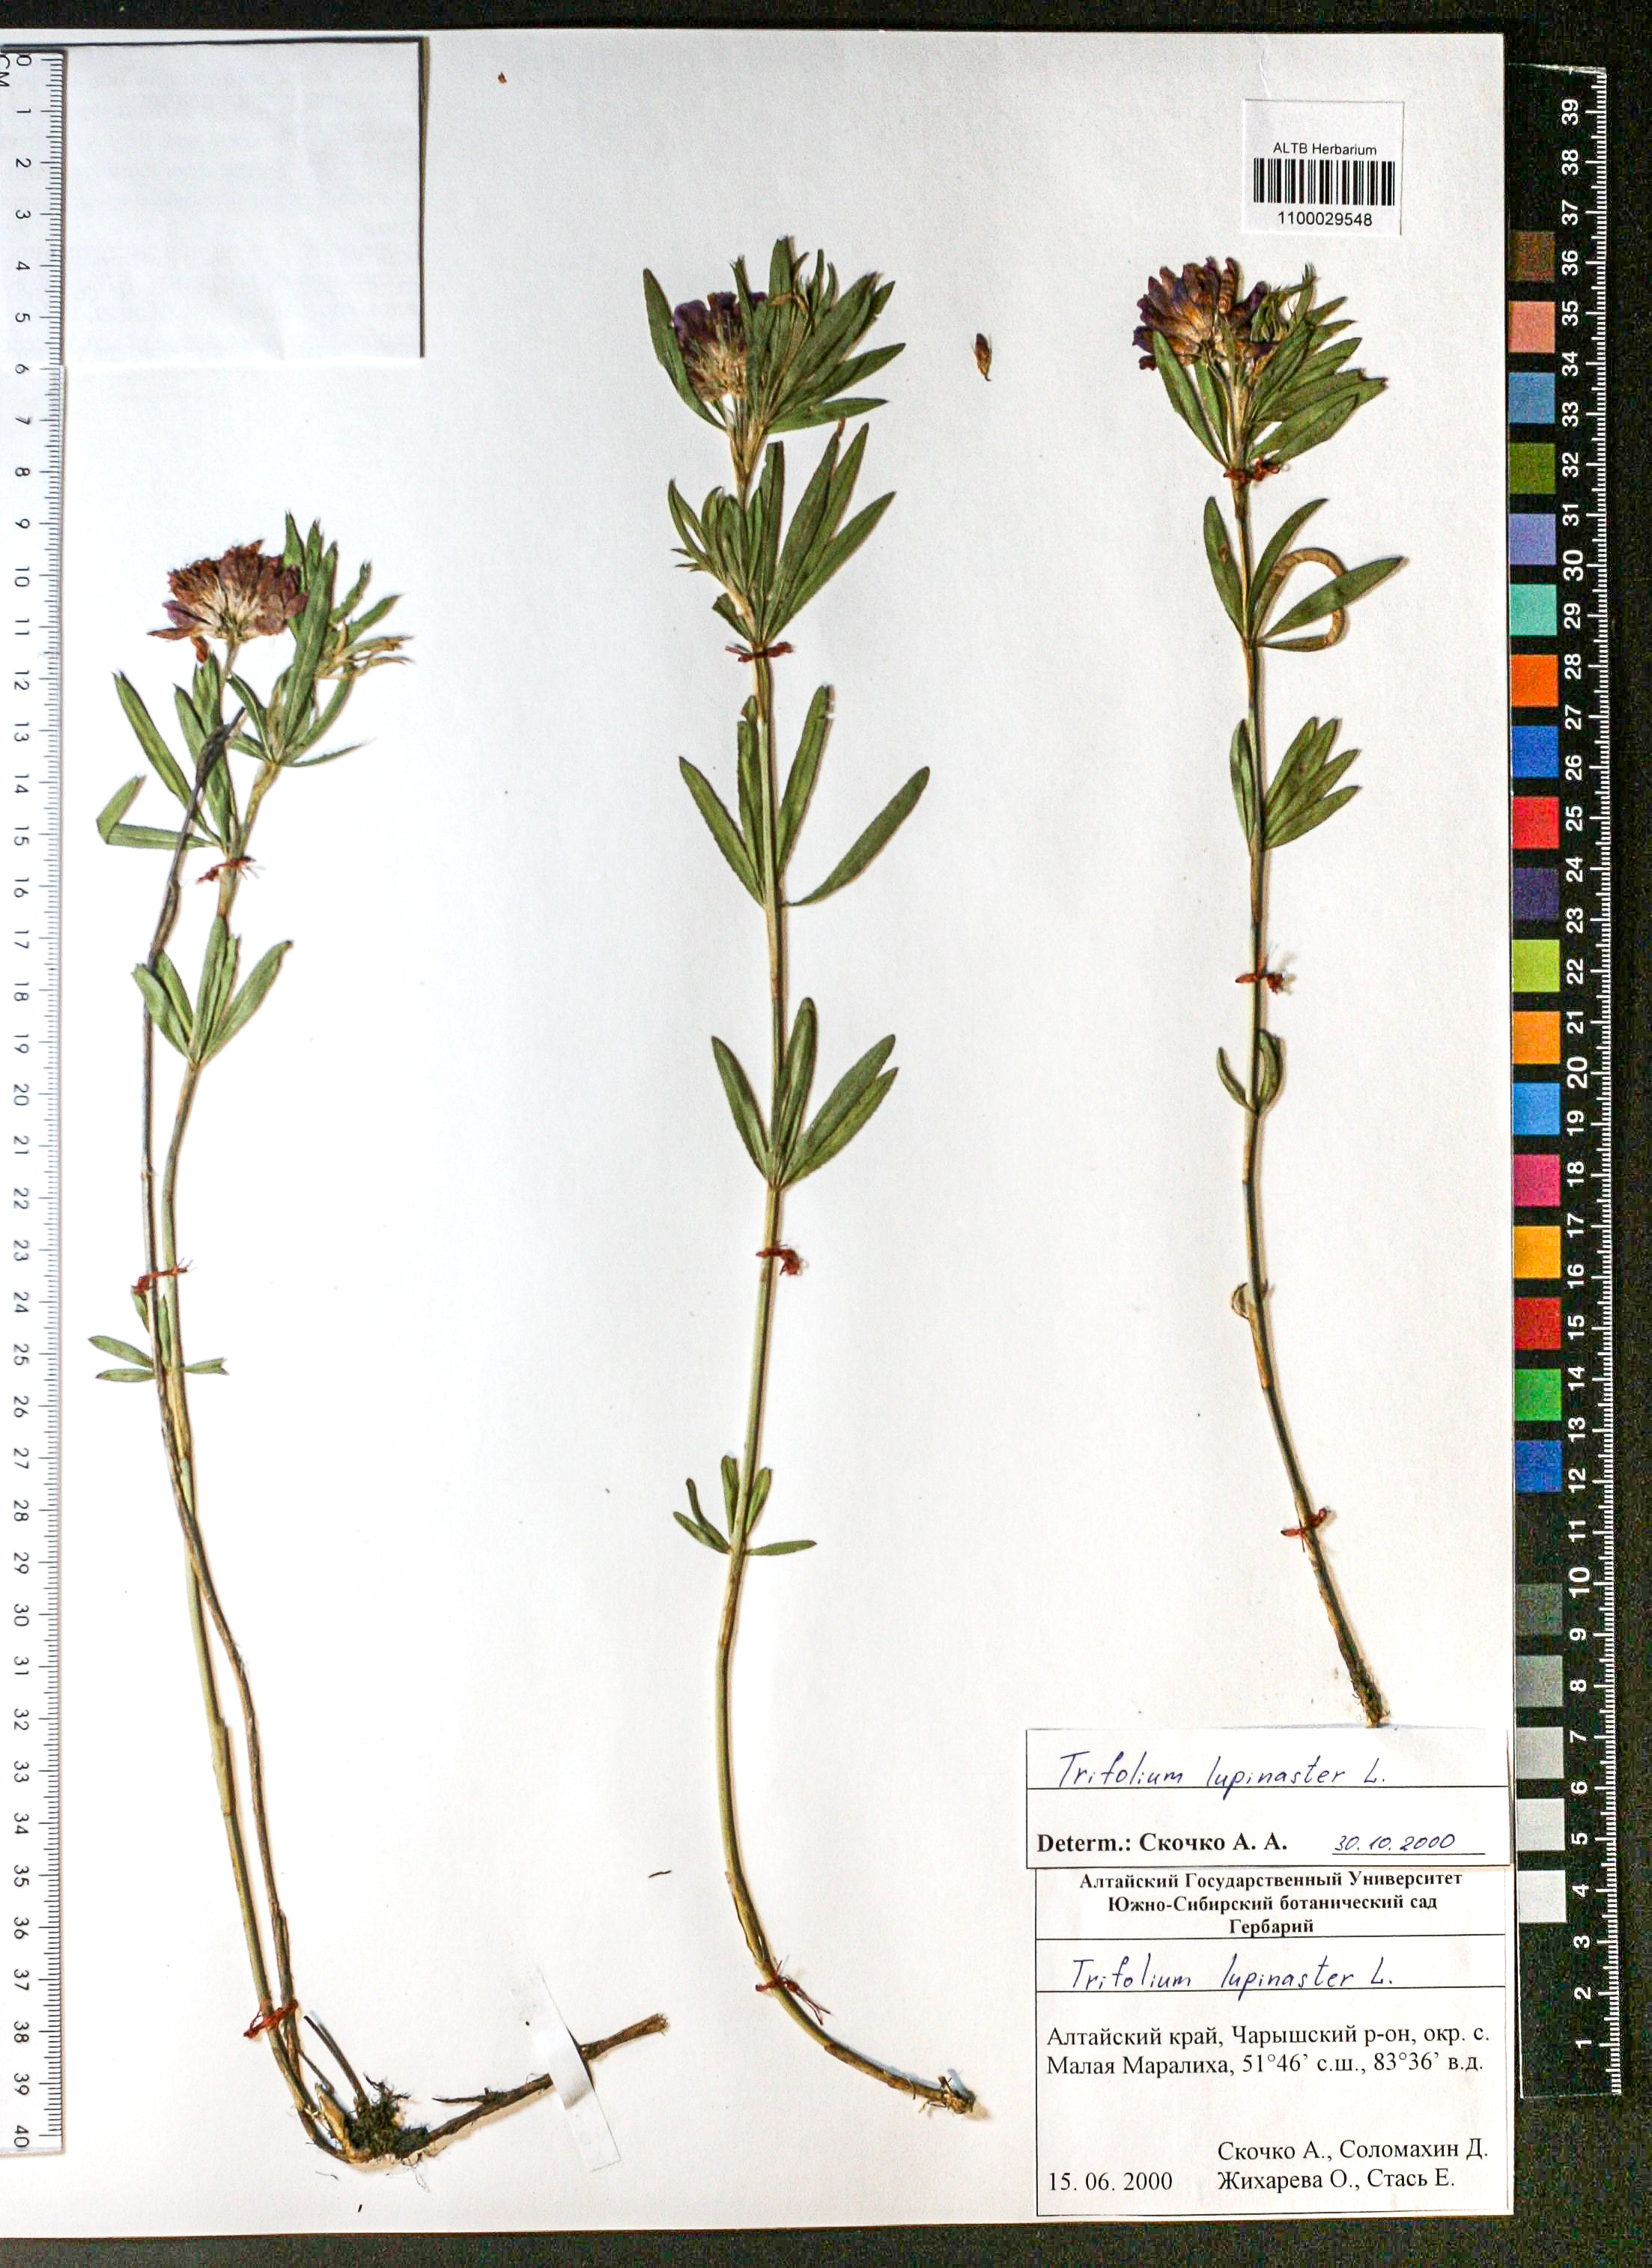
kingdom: Plantae
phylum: Tracheophyta
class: Magnoliopsida
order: Fabales
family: Fabaceae
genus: Trifolium
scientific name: Trifolium lupinaster
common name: Lupine clover
